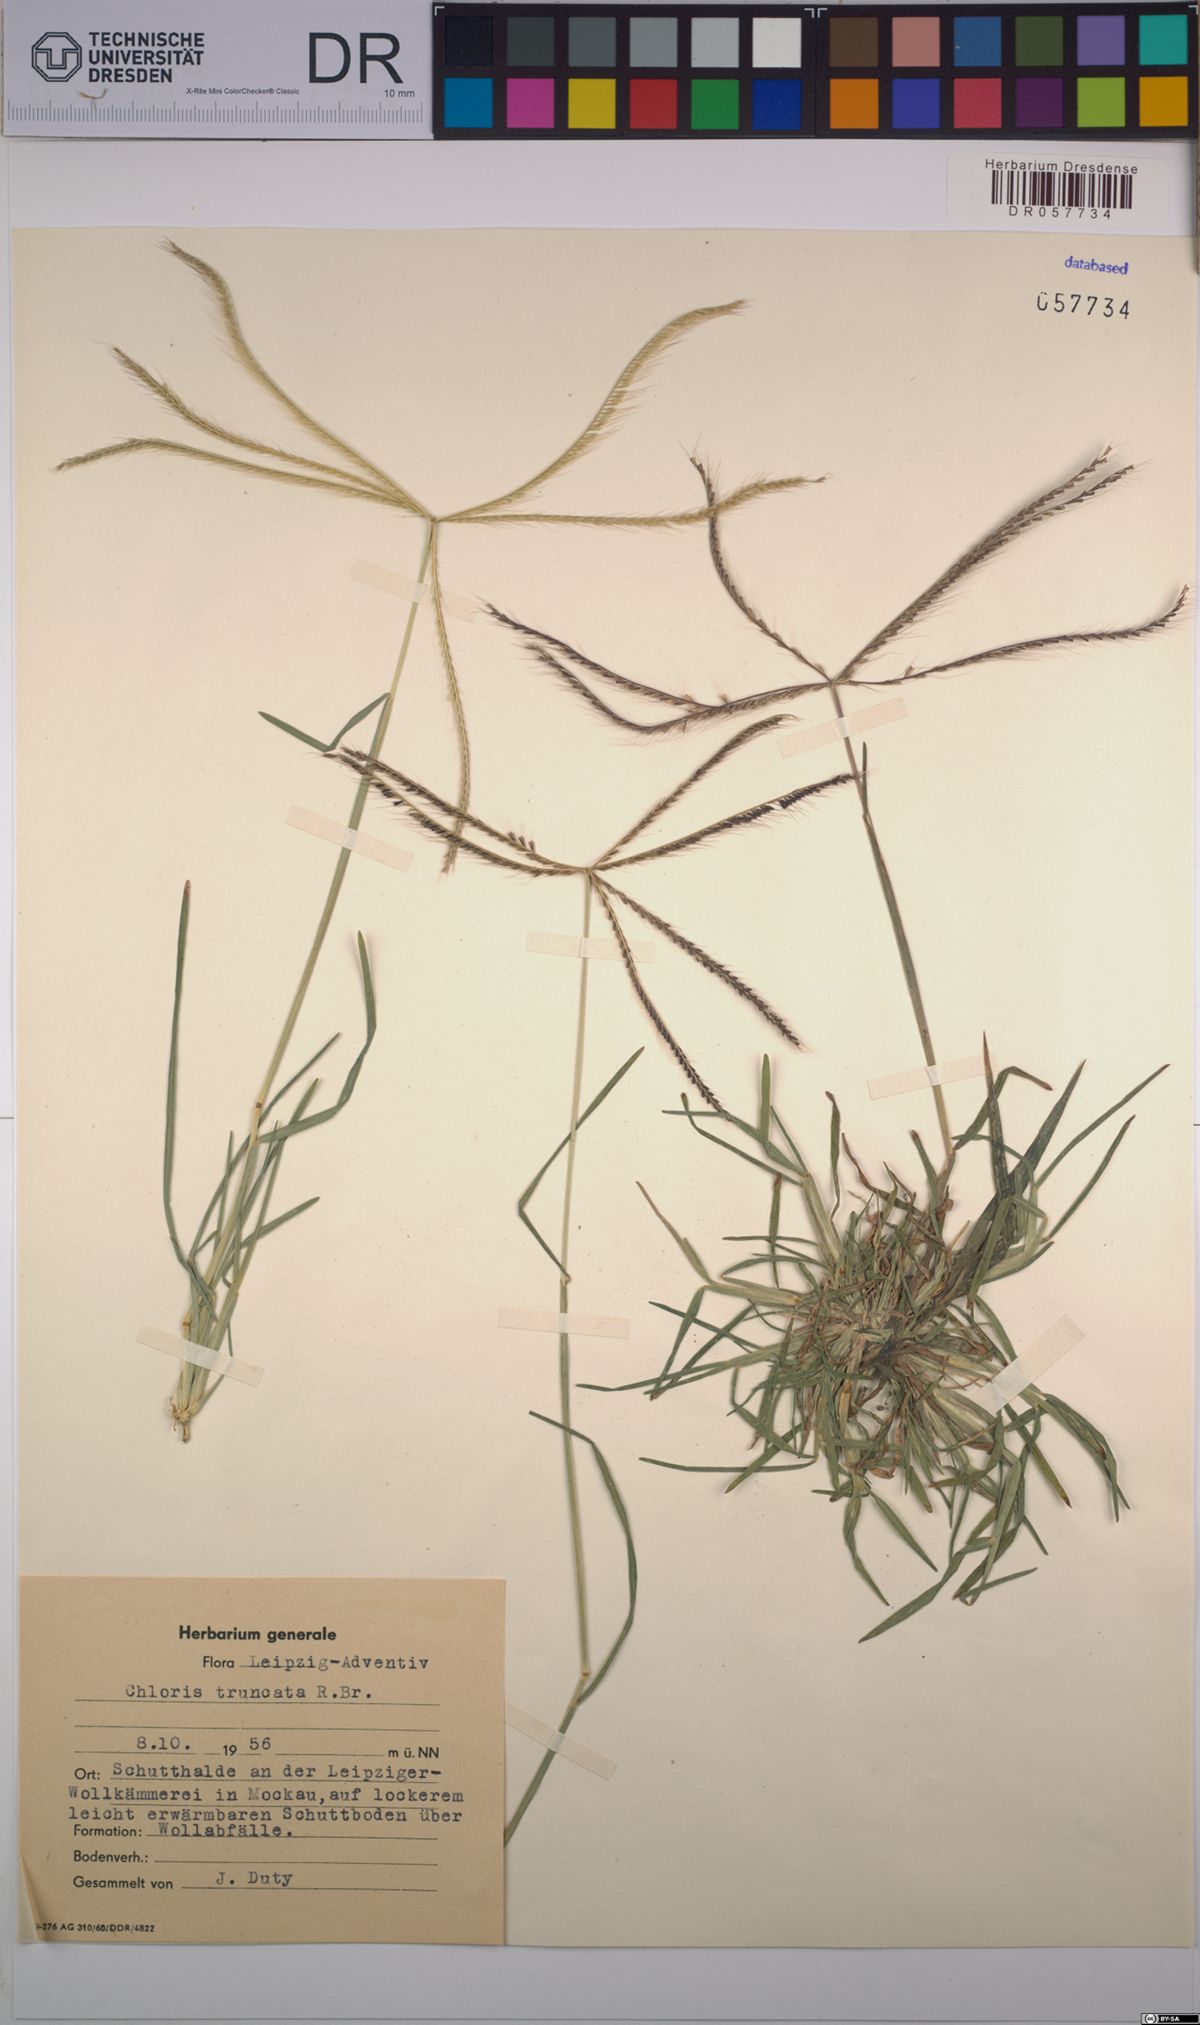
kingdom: Plantae
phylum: Tracheophyta
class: Liliopsida
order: Poales
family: Poaceae
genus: Chloris
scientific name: Chloris truncata
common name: Windmill-grass
